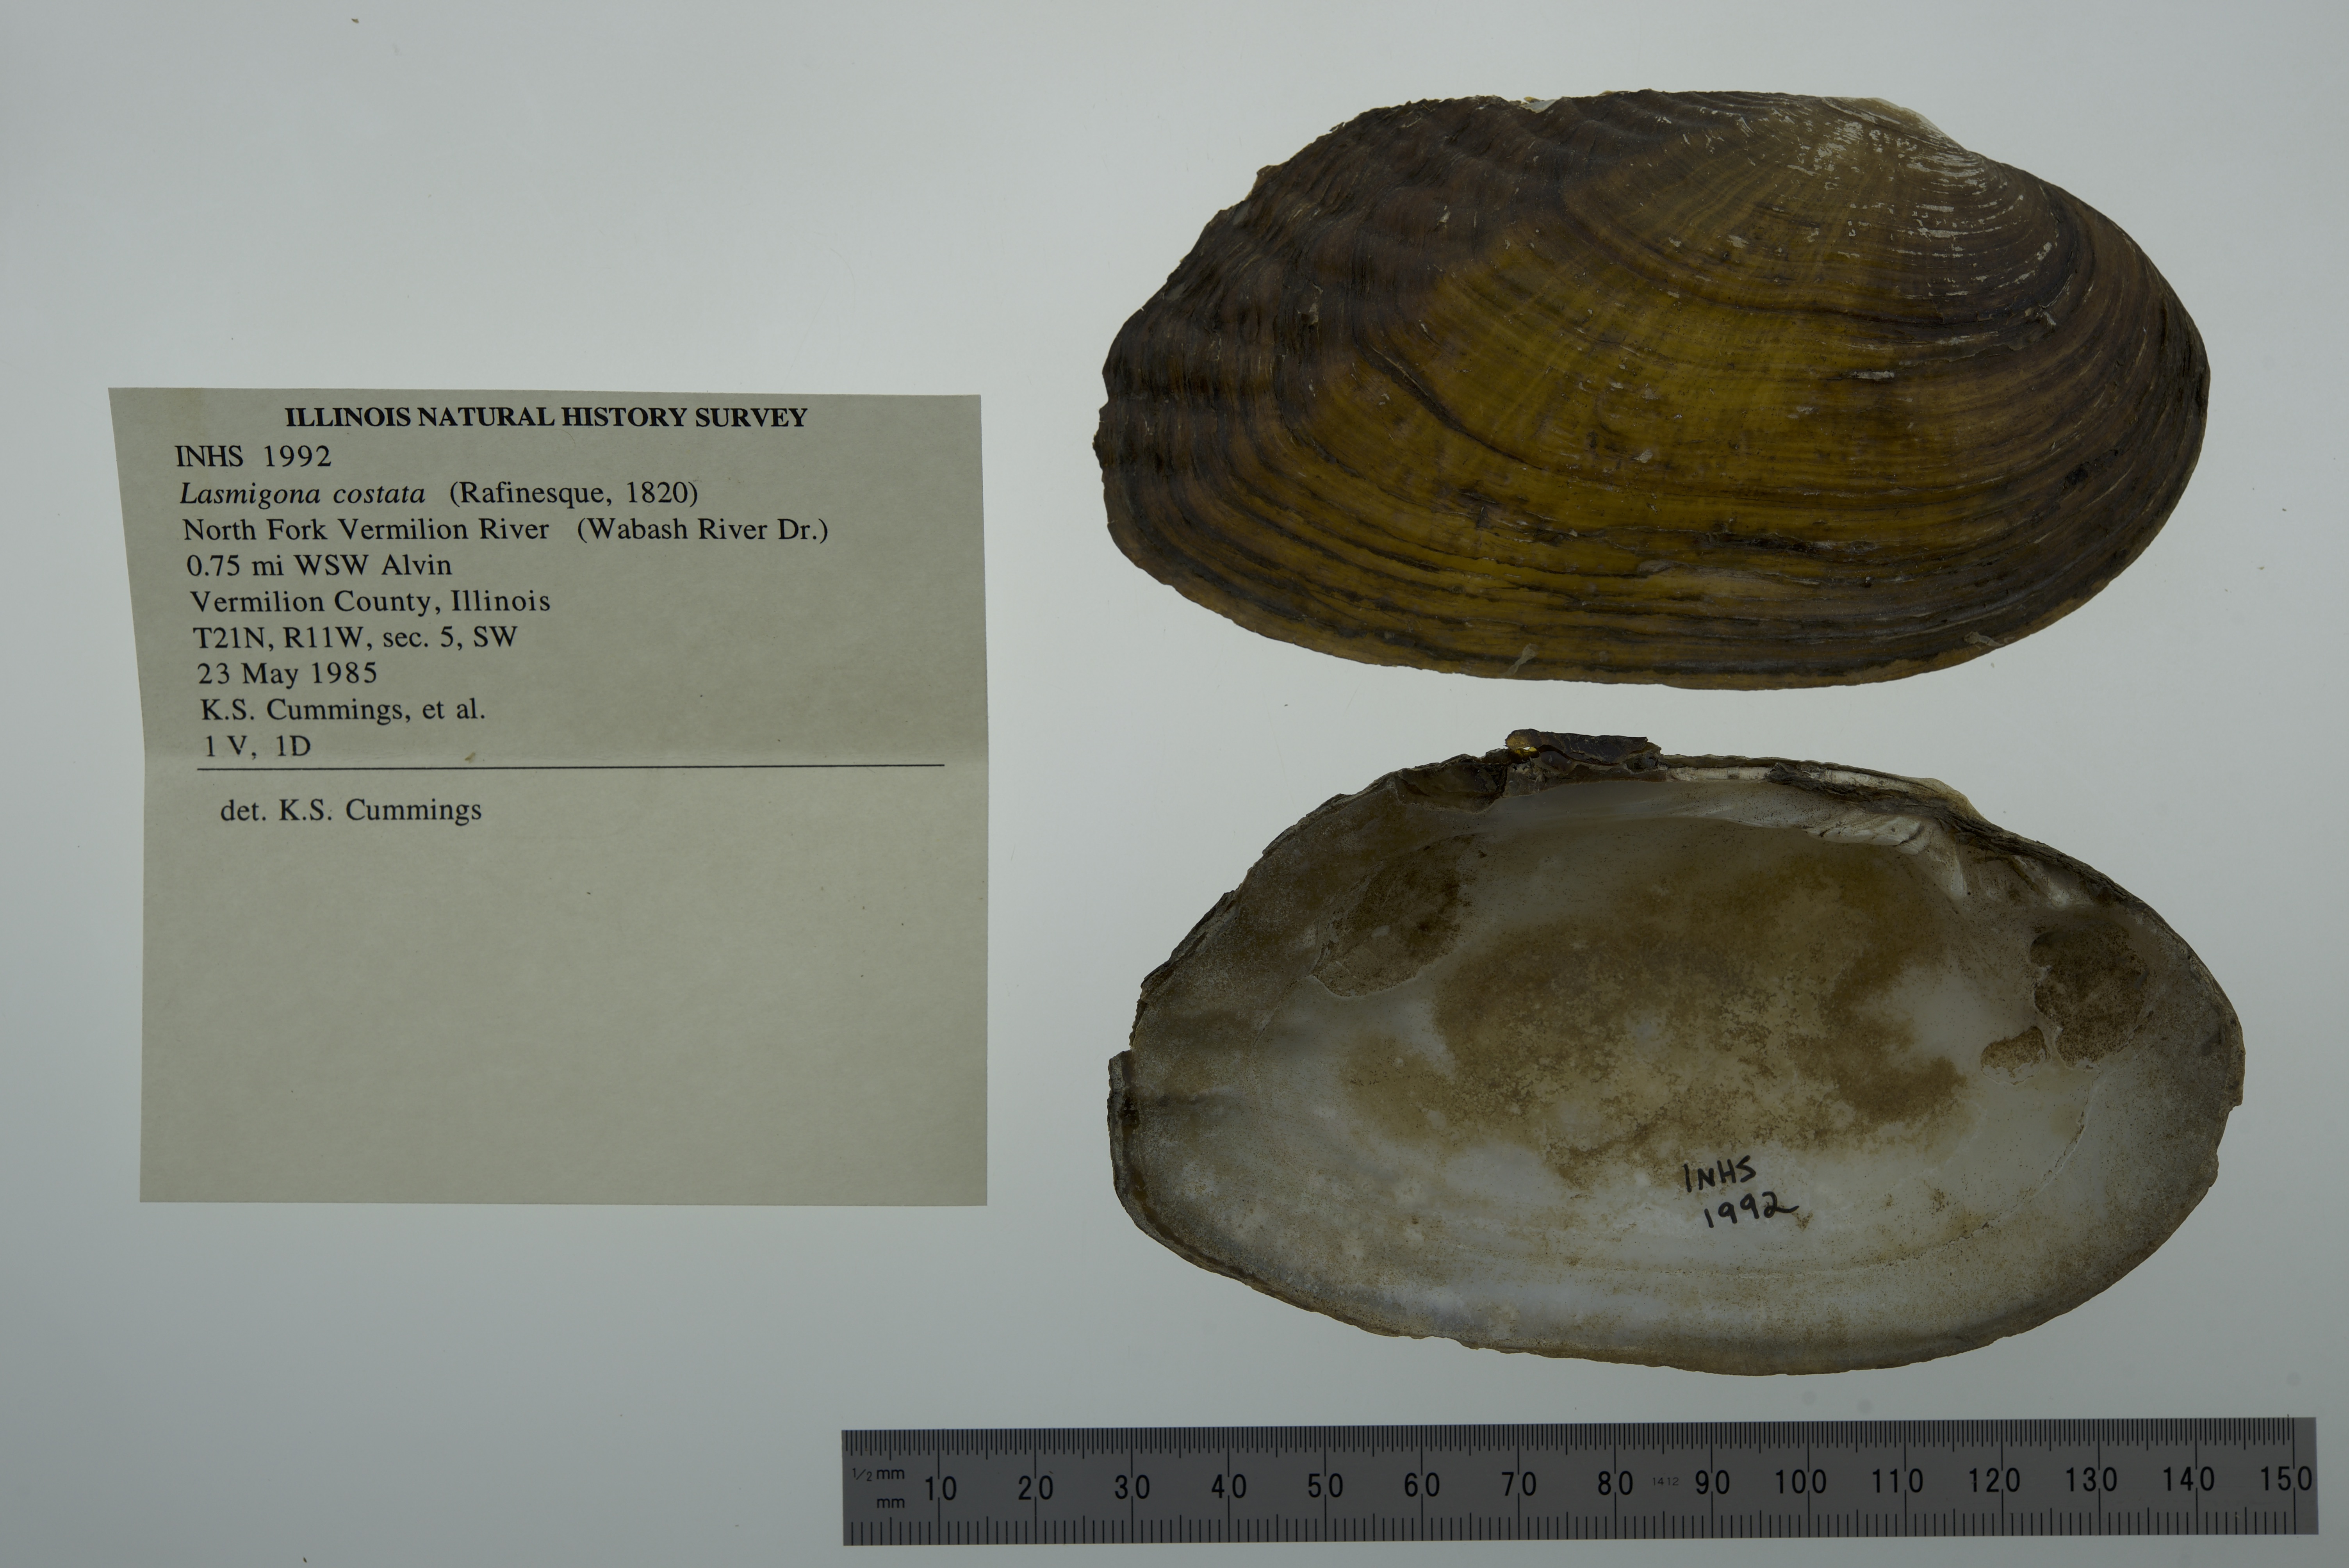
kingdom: Animalia
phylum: Mollusca
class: Bivalvia
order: Unionida
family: Unionidae
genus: Lasmigona
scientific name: Lasmigona costata
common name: Flutedshell
